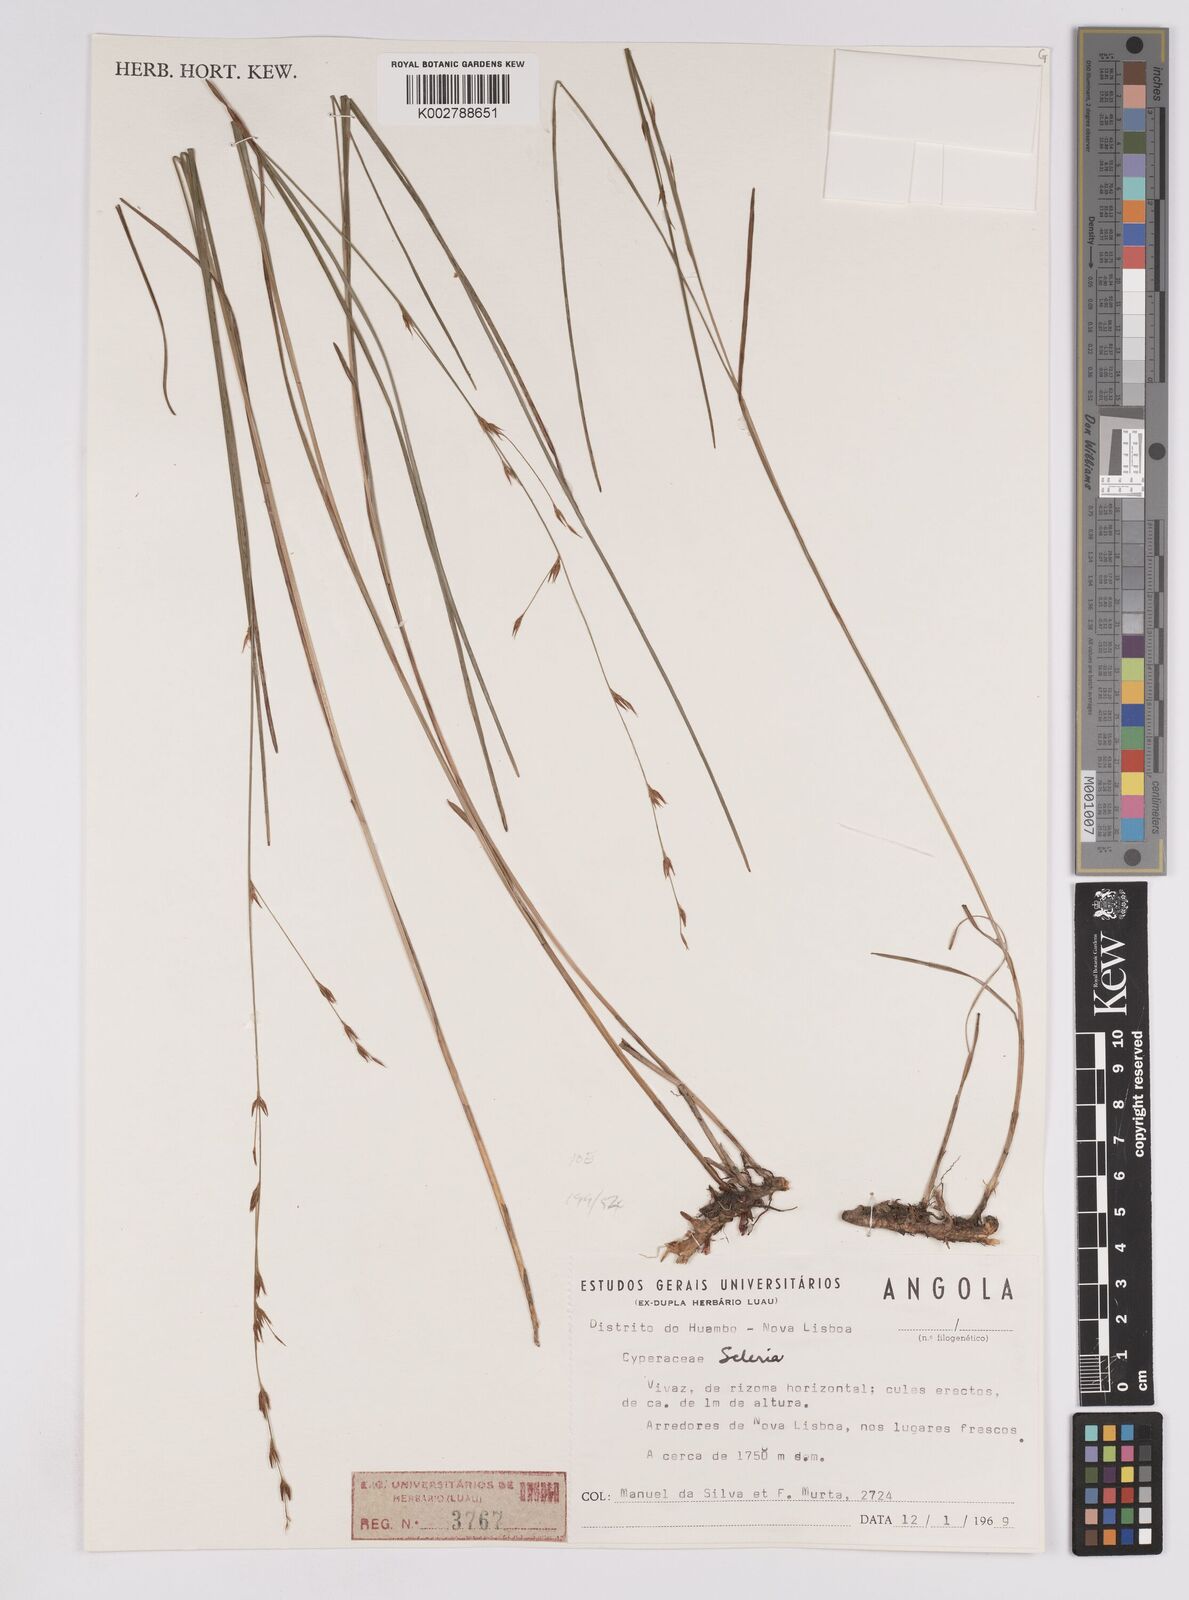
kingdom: Plantae
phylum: Tracheophyta
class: Liliopsida
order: Poales
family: Cyperaceae
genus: Scleria
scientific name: Scleria
